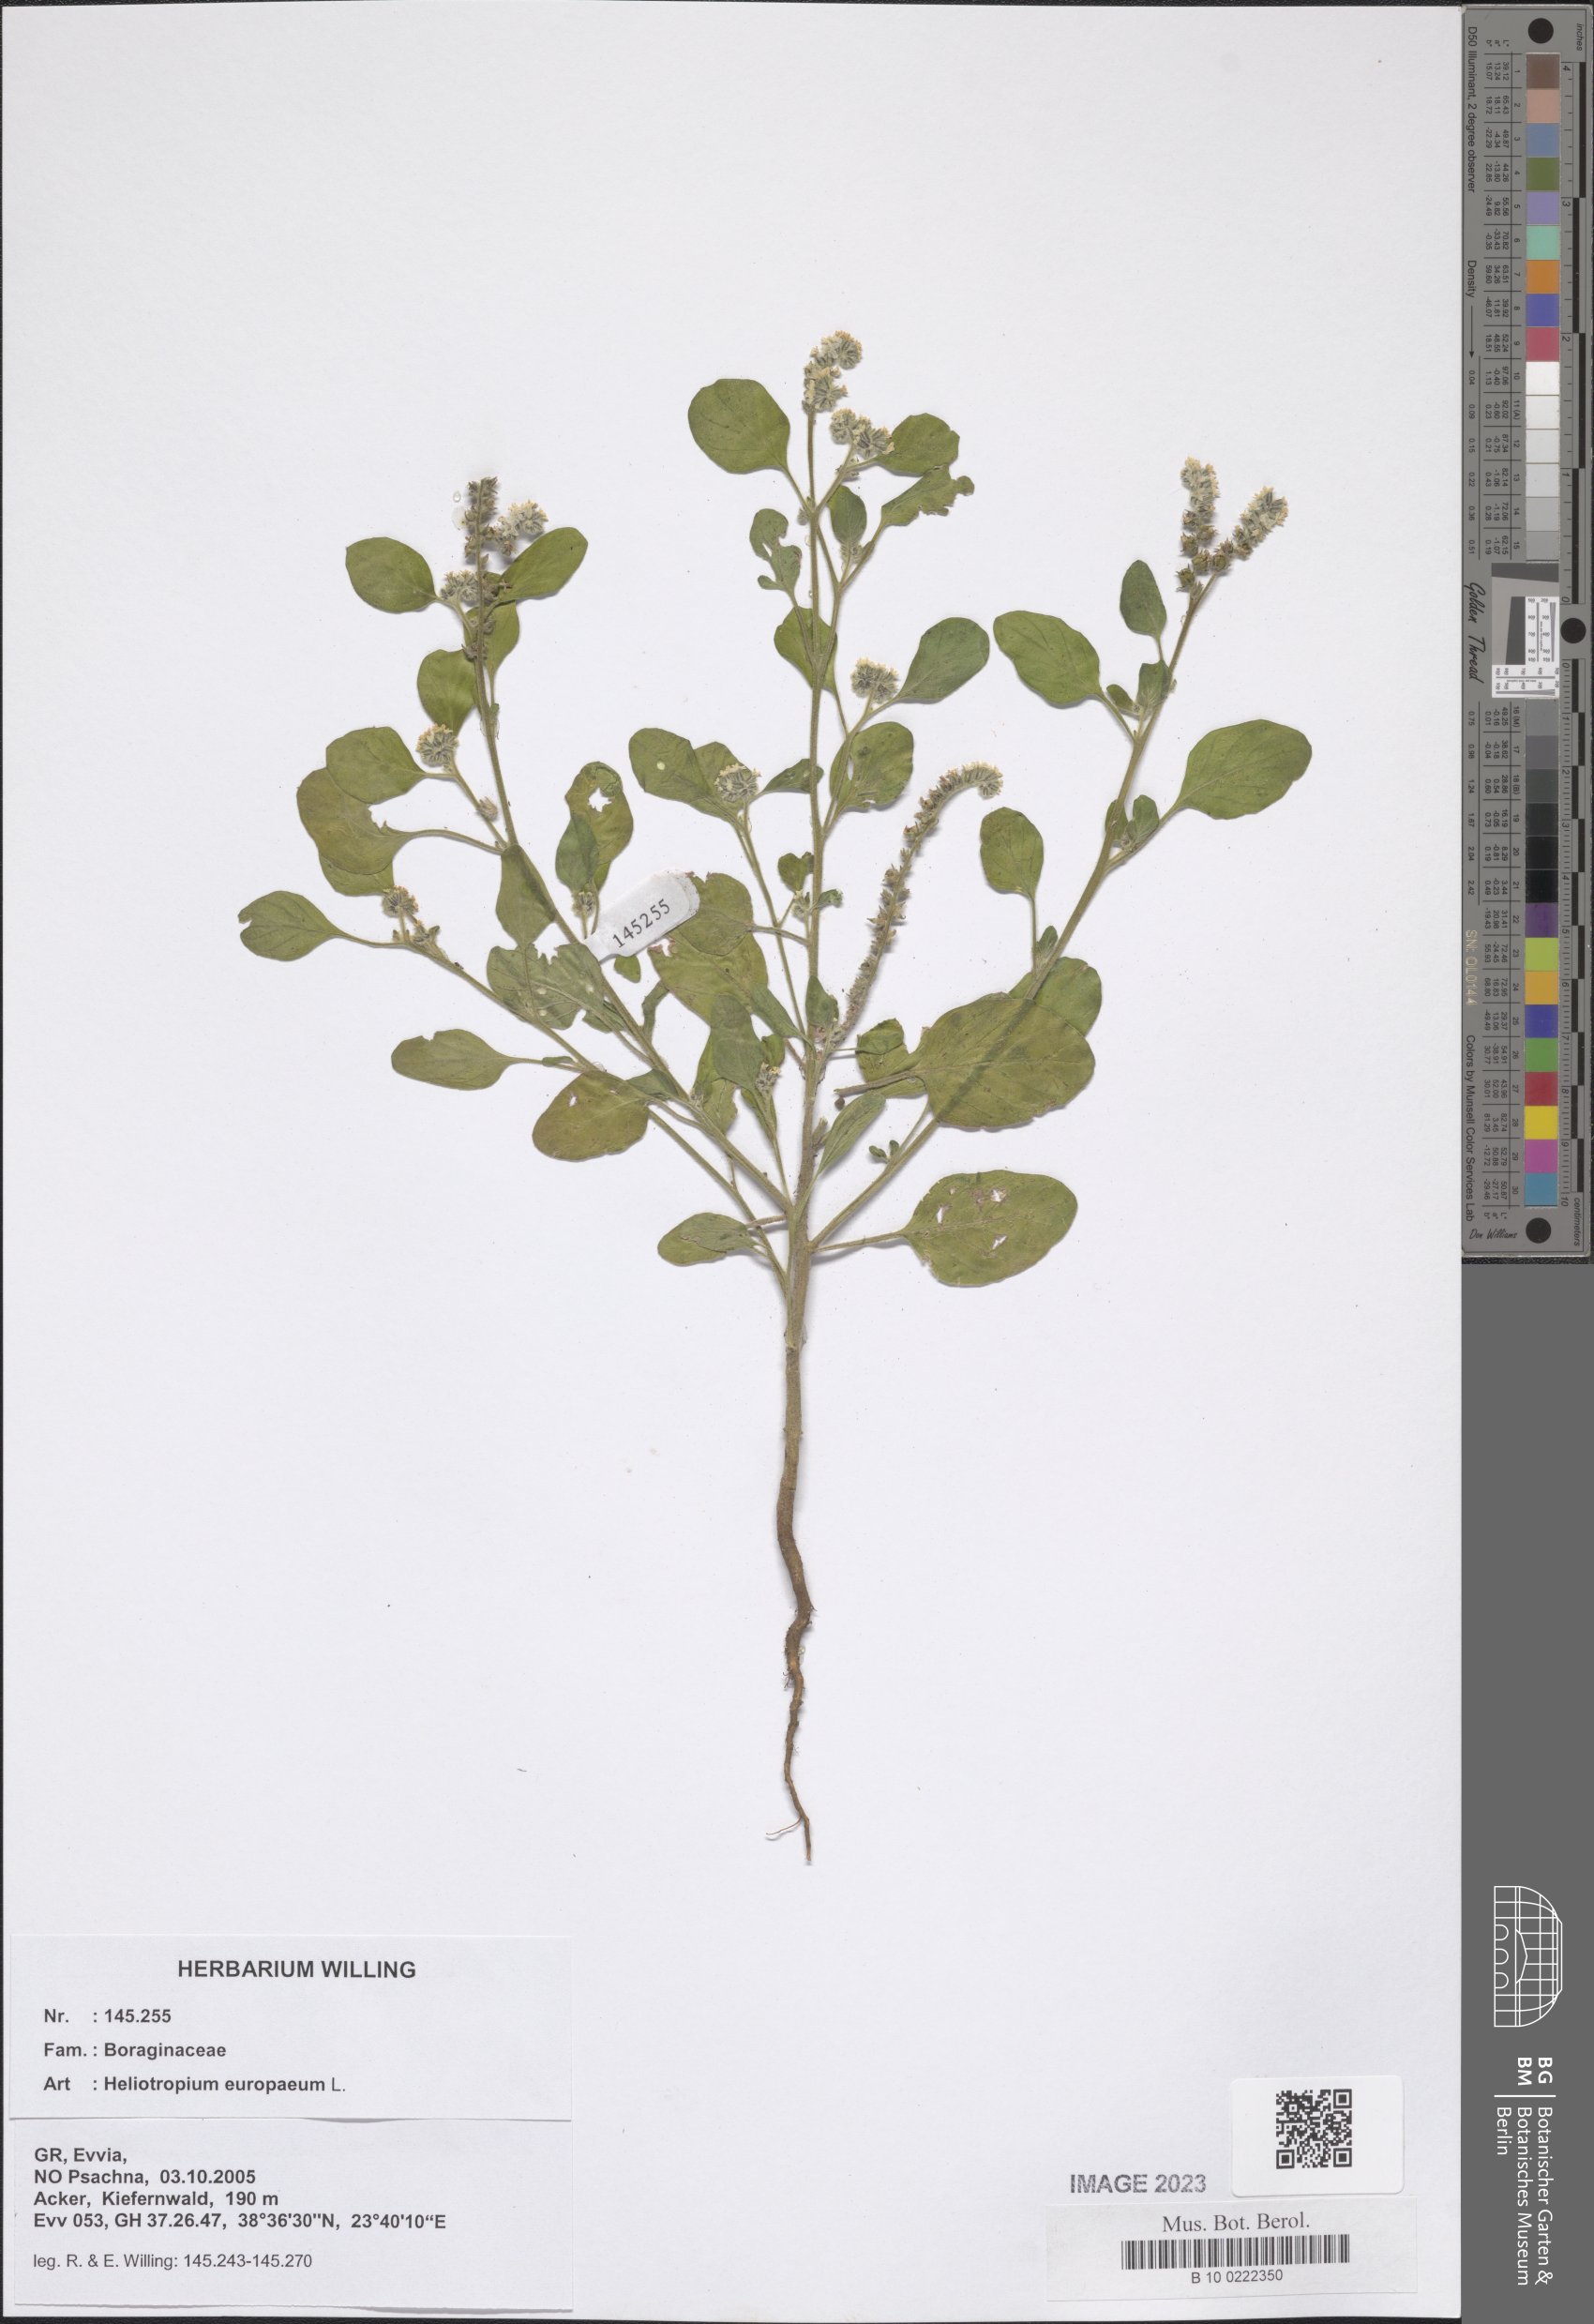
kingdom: Plantae
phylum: Tracheophyta
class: Magnoliopsida
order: Boraginales
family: Heliotropiaceae
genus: Heliotropium
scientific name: Heliotropium europaeum
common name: European heliotrope
